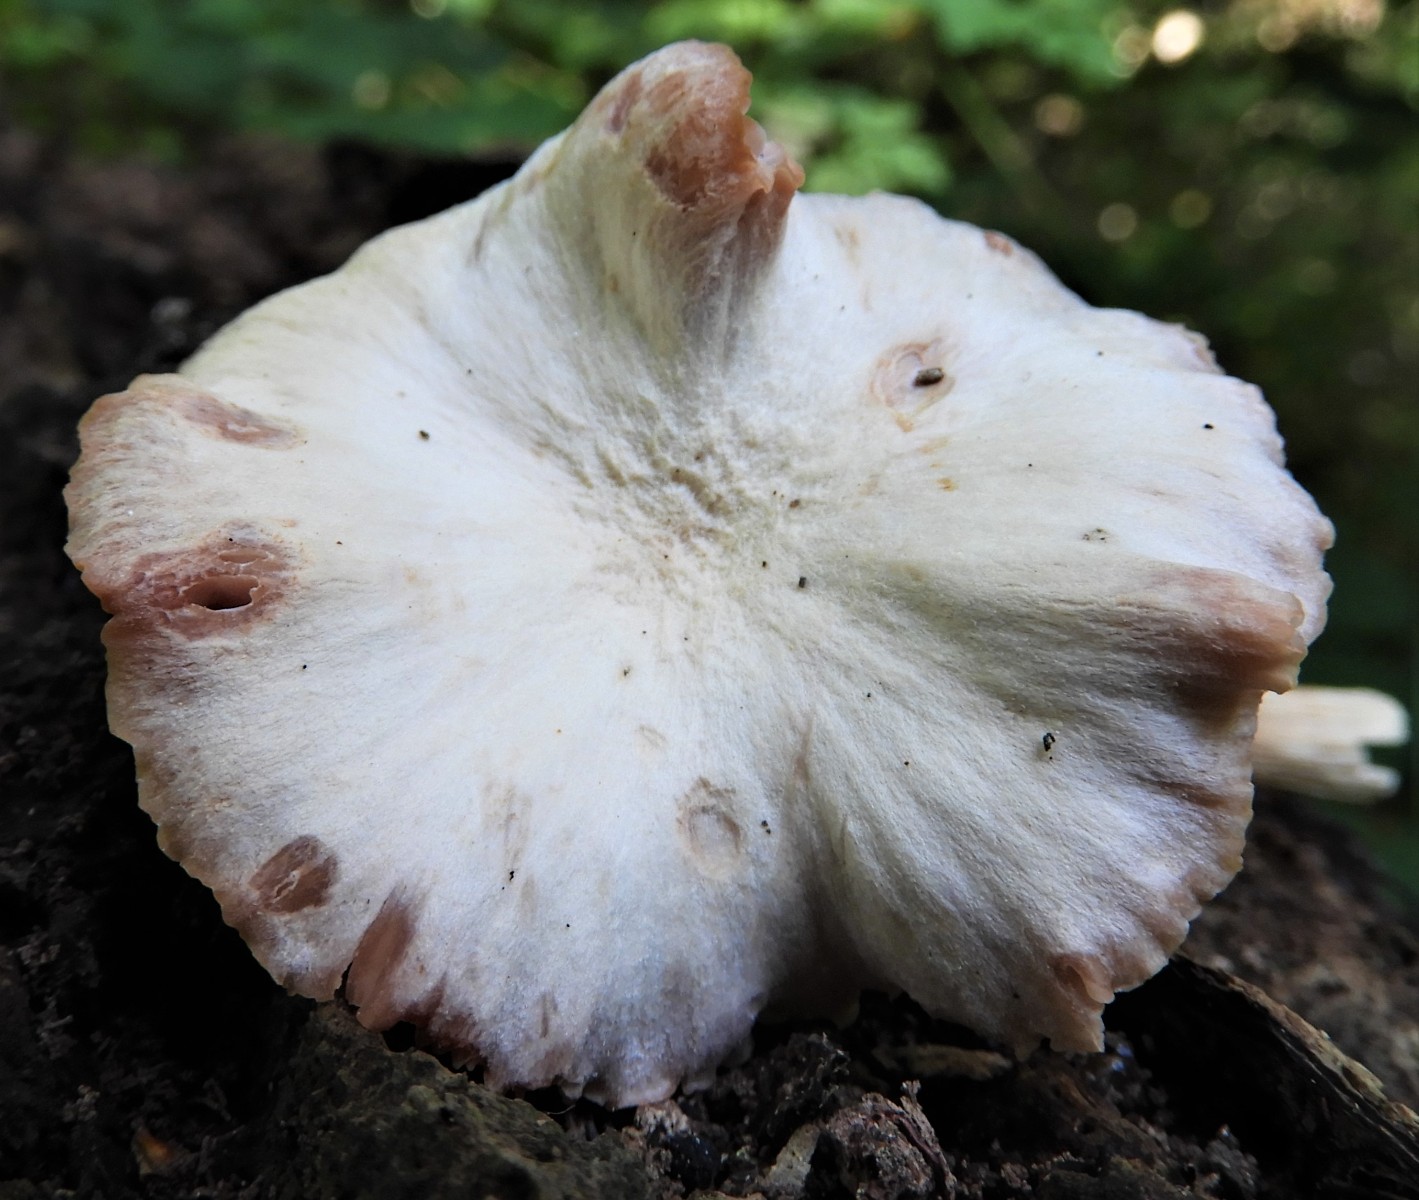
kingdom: Fungi
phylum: Basidiomycota
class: Agaricomycetes
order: Agaricales
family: Hydnangiaceae
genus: Laccaria
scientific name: Laccaria proxima
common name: stor ametysthat
